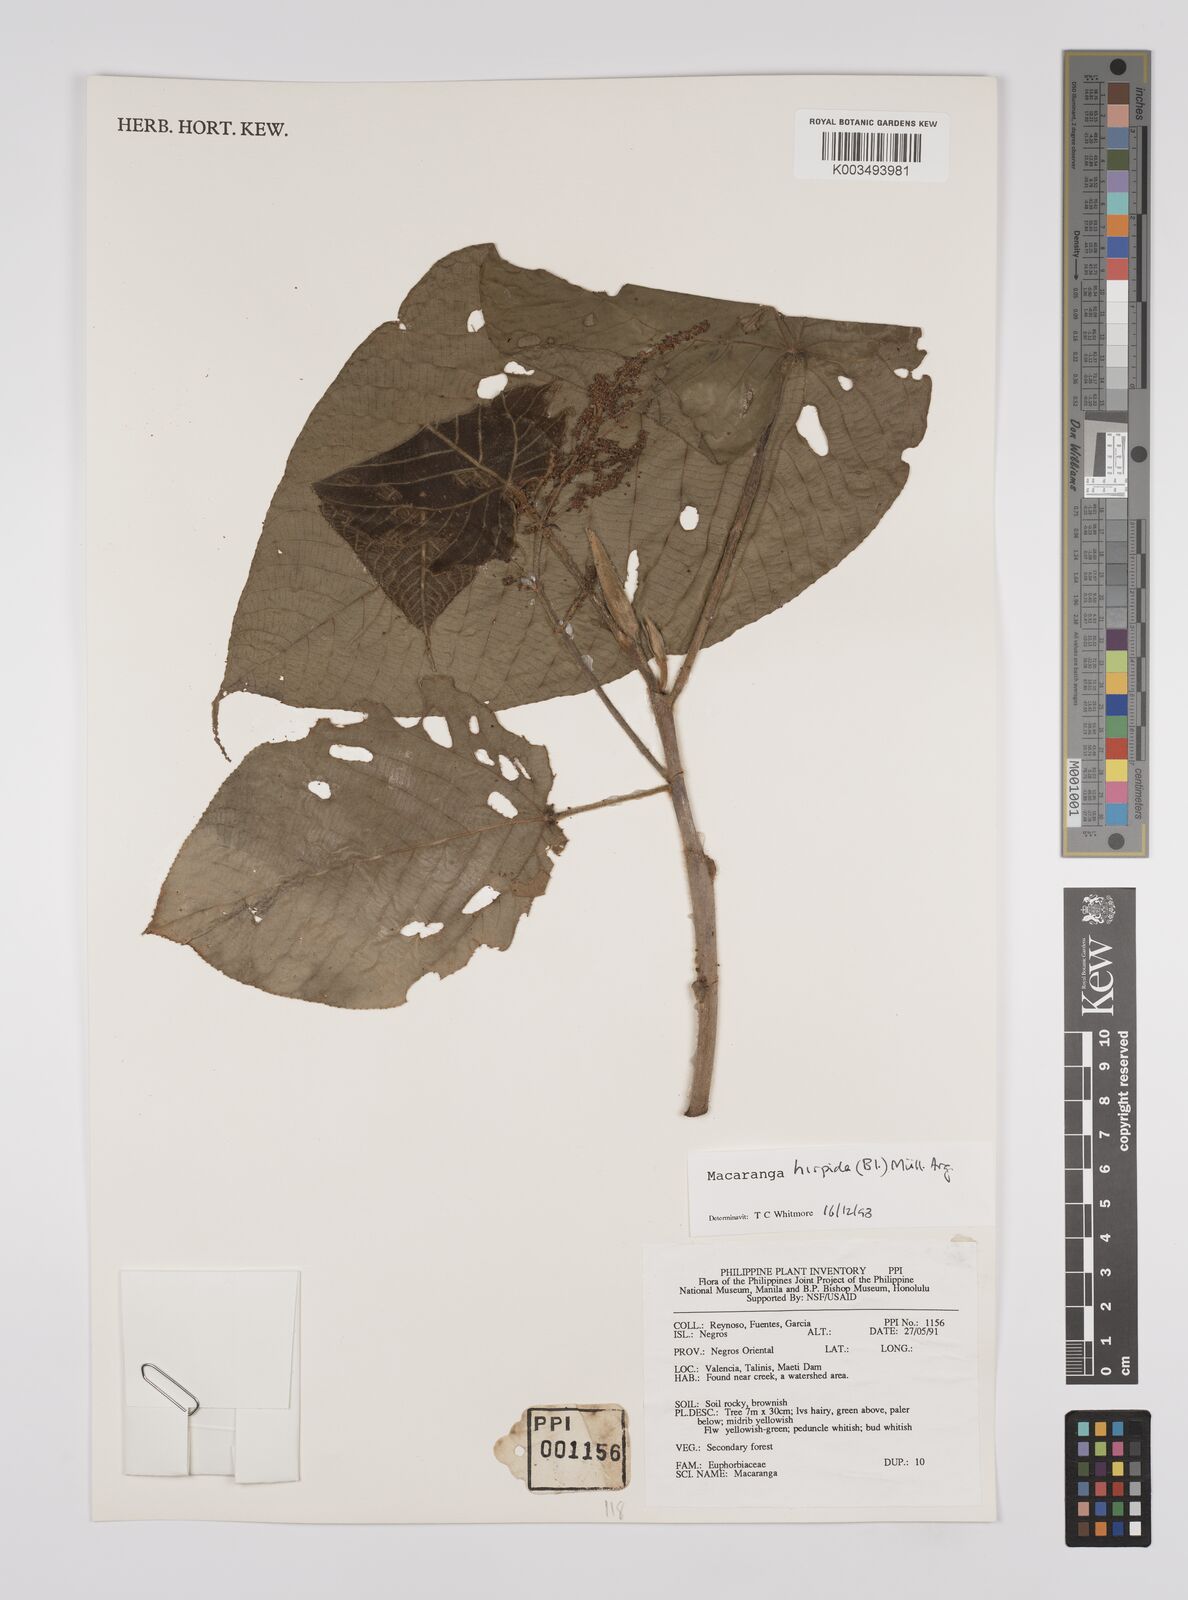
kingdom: Plantae
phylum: Tracheophyta
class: Magnoliopsida
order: Malpighiales
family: Euphorbiaceae
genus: Macaranga
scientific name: Macaranga hispida
